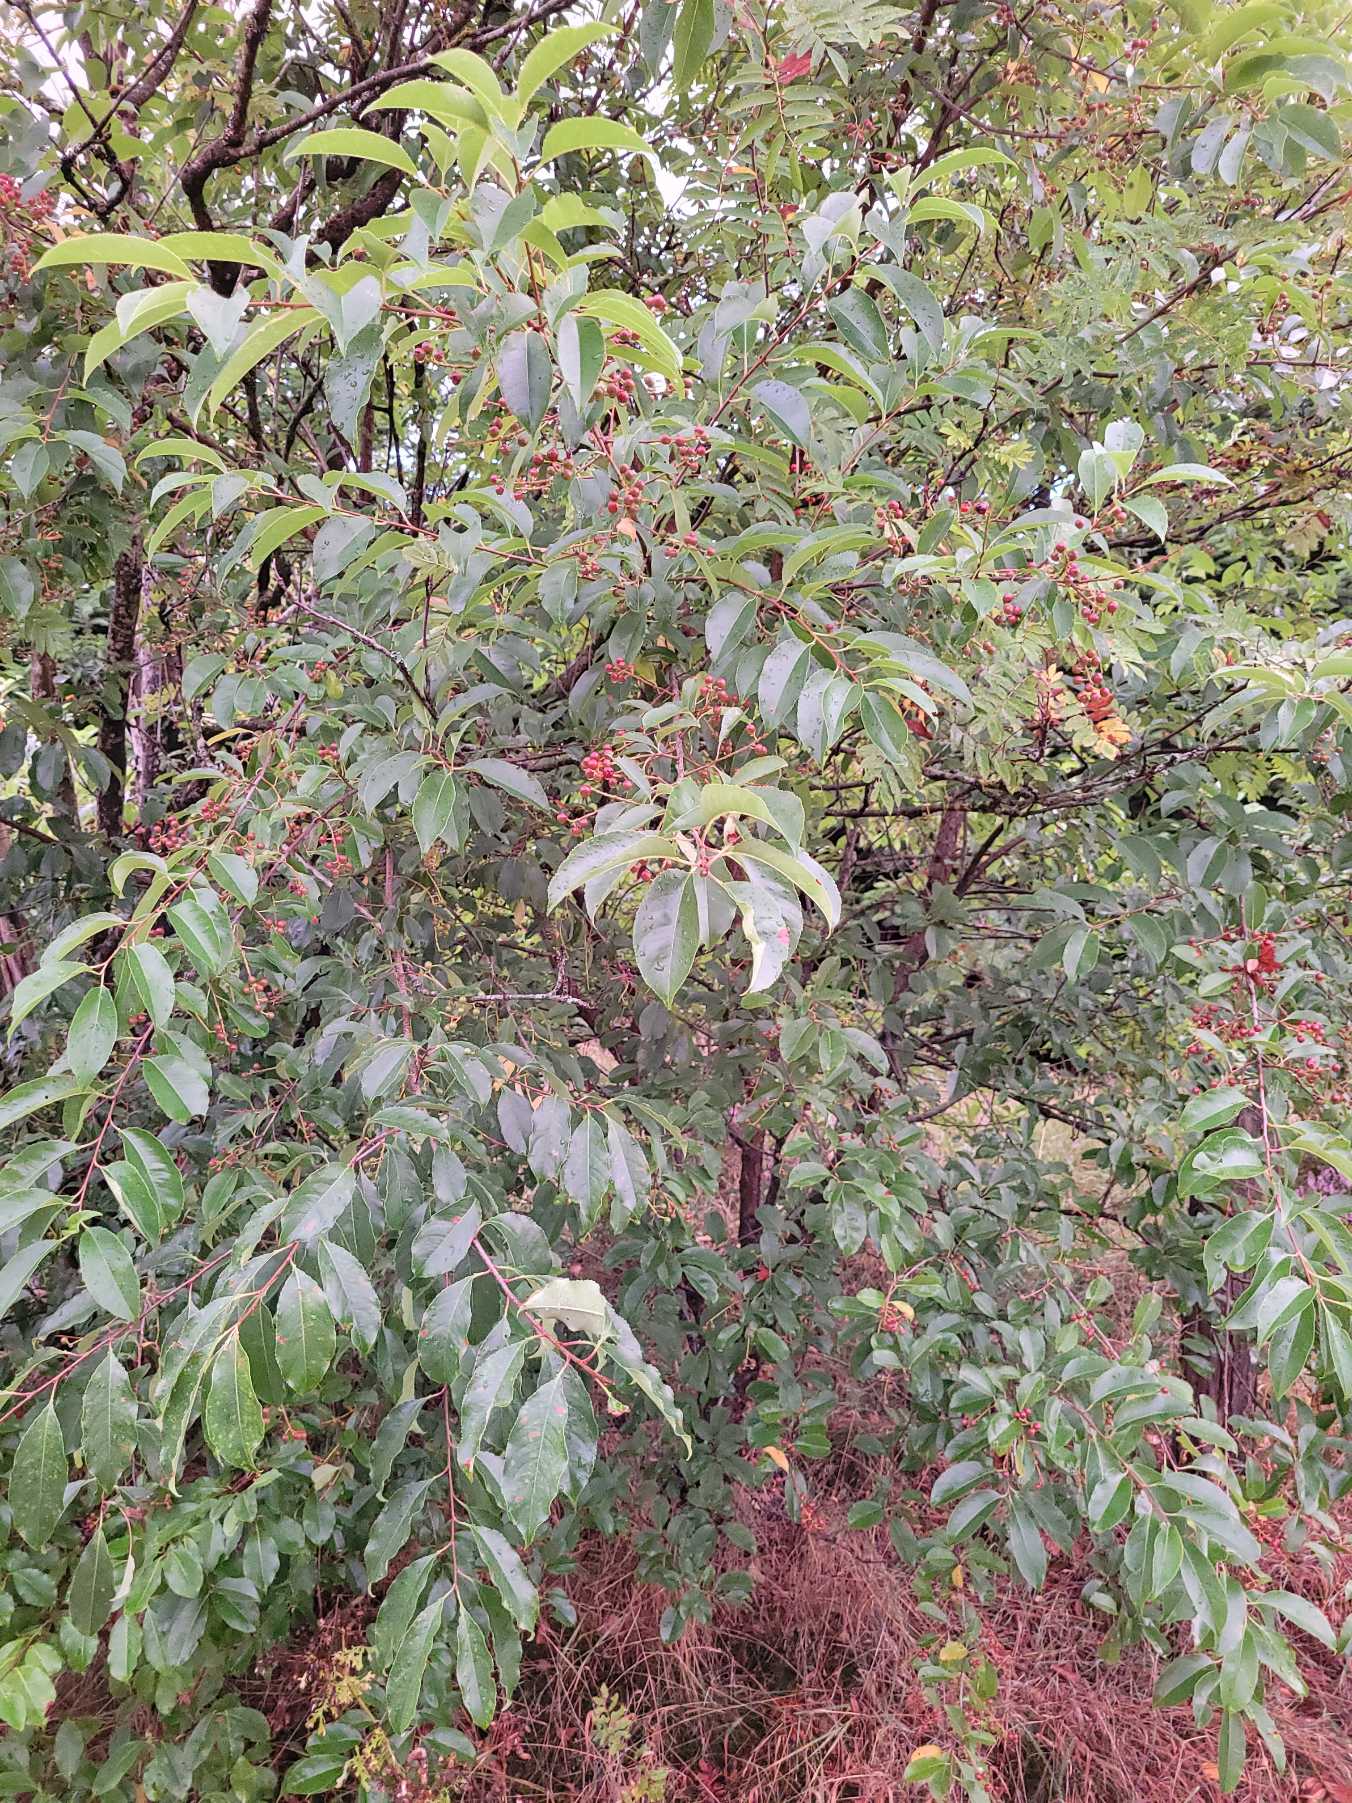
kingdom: Plantae
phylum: Tracheophyta
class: Magnoliopsida
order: Rosales
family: Rosaceae
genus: Prunus
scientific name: Prunus serotina
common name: Glansbladet hæg
